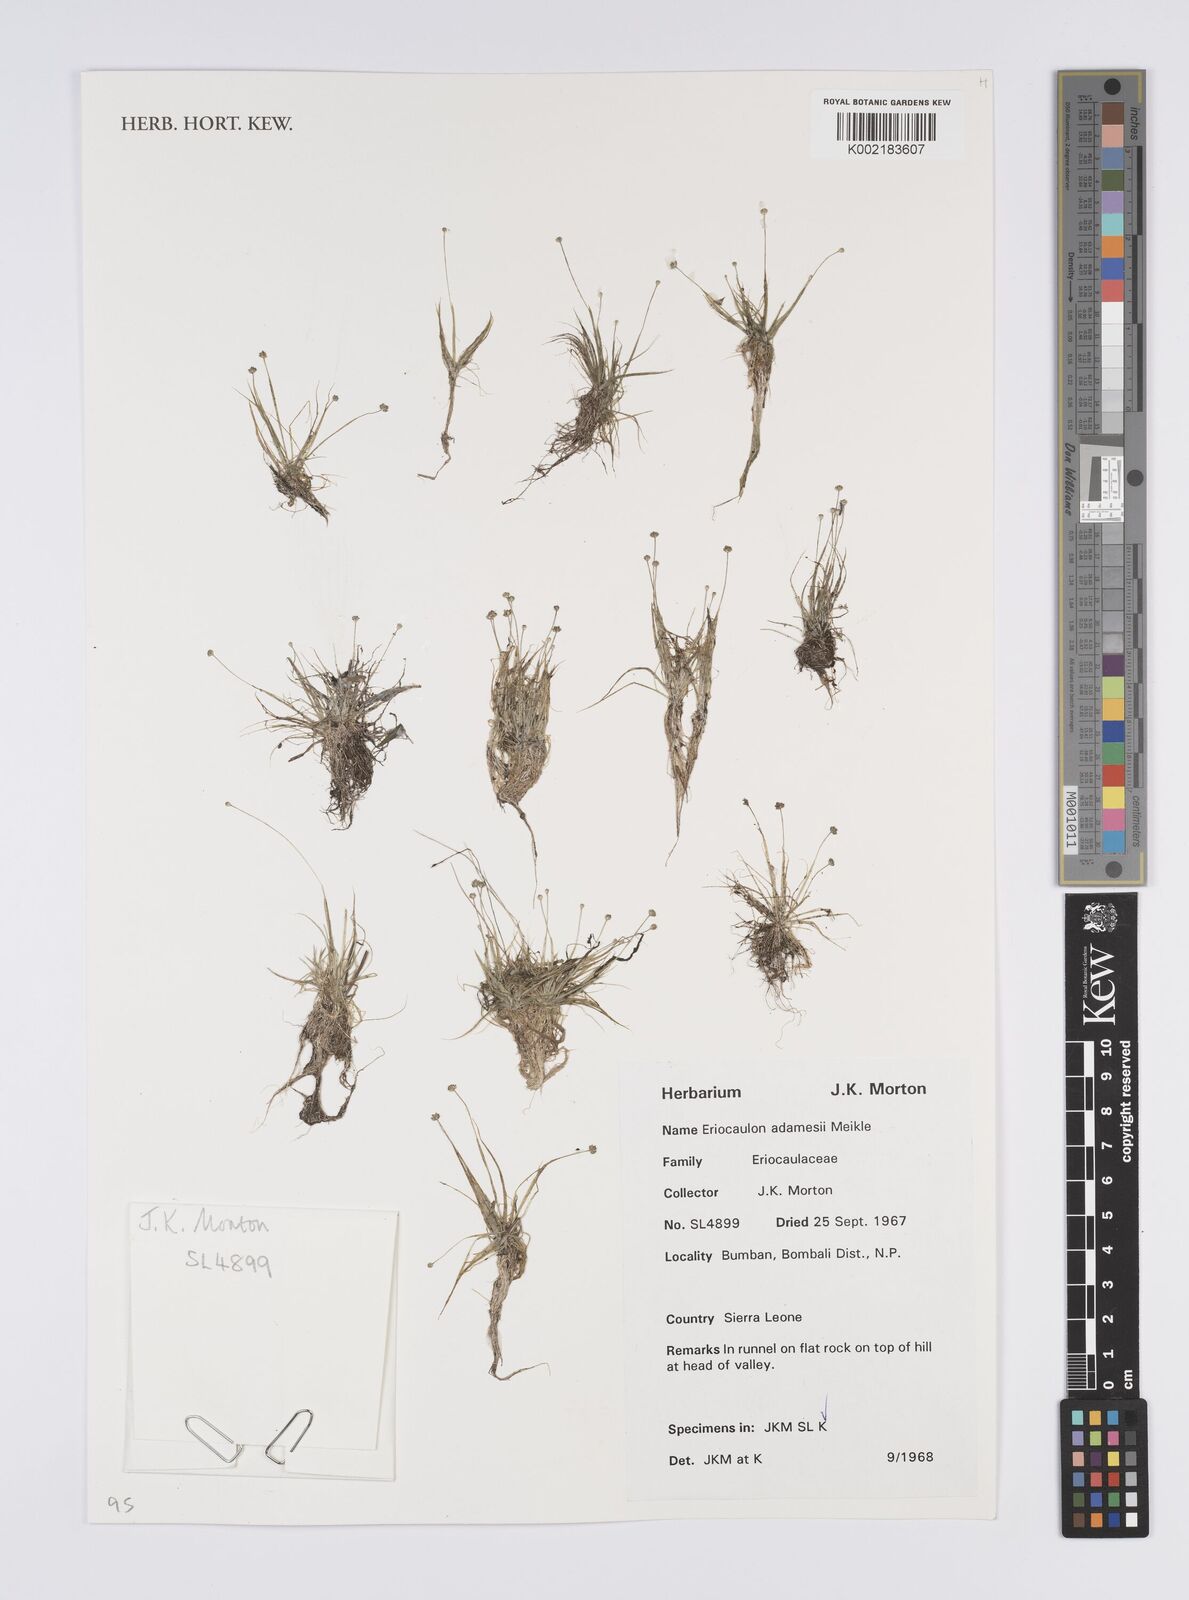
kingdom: Plantae
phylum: Tracheophyta
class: Liliopsida
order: Poales
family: Eriocaulaceae
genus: Eriocaulon
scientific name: Eriocaulon adamesii
